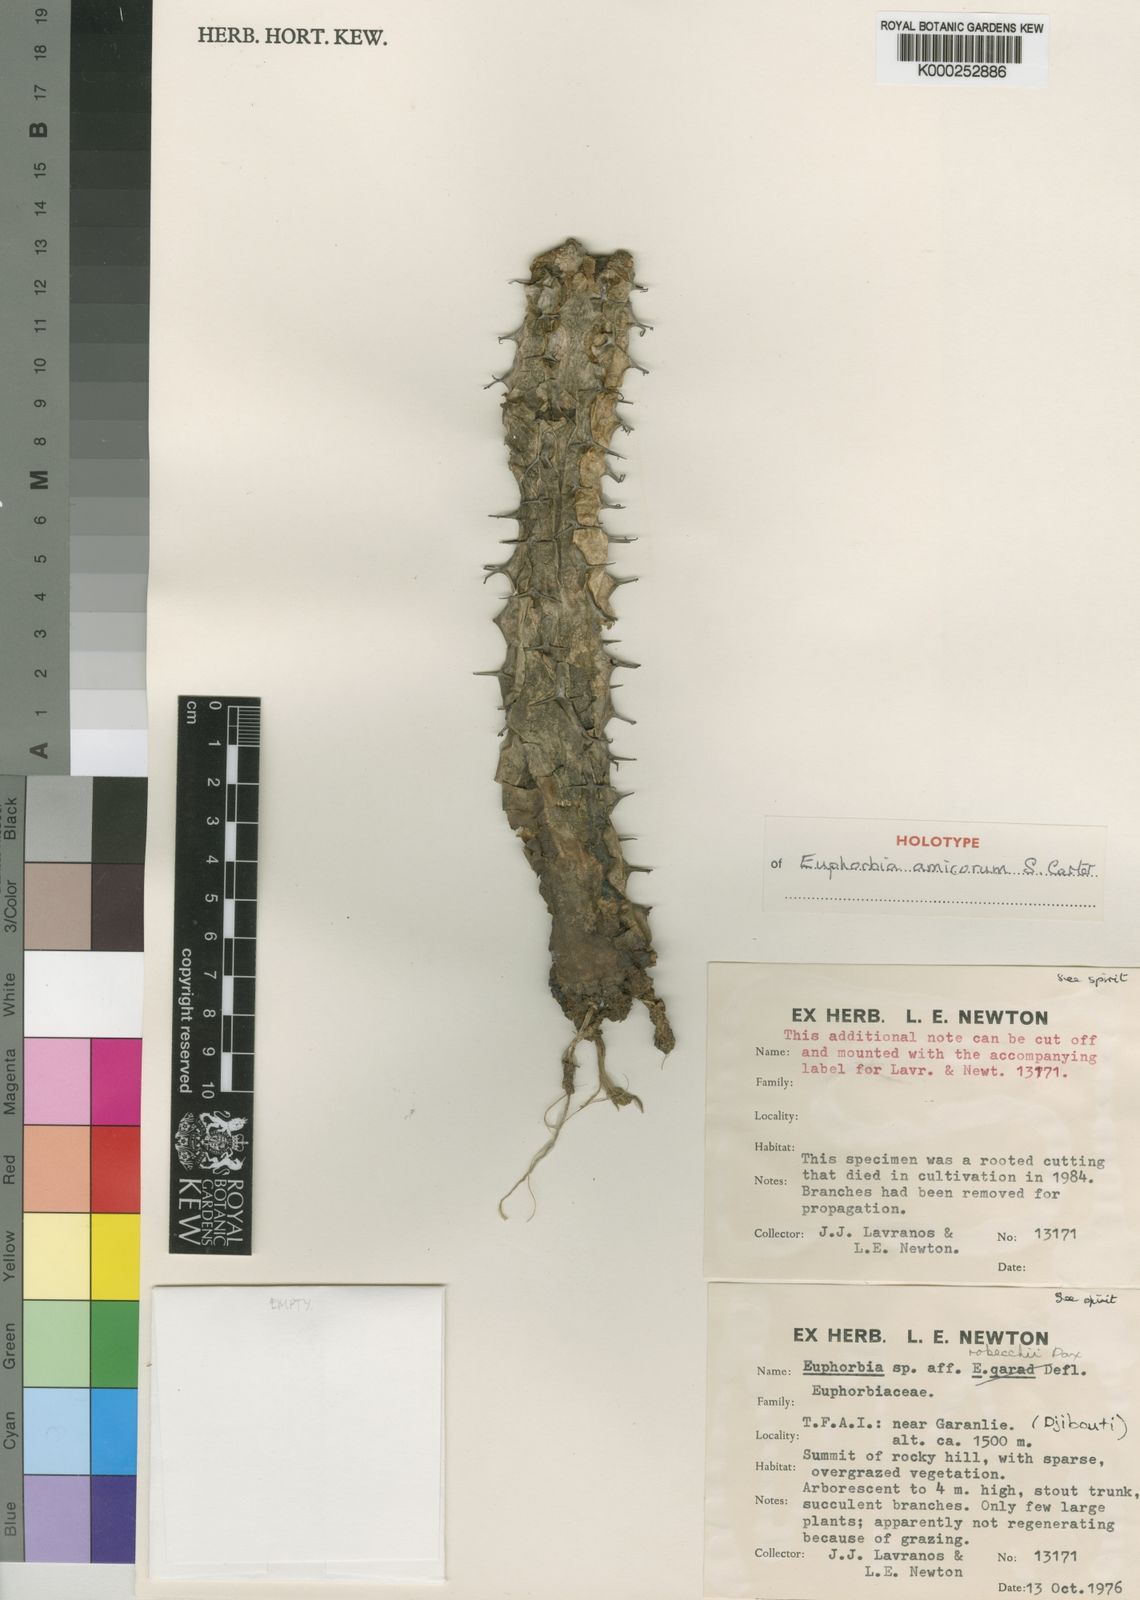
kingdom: Plantae
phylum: Tracheophyta
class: Magnoliopsida
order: Malpighiales
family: Euphorbiaceae
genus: Euphorbia
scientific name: Euphorbia amicorum
